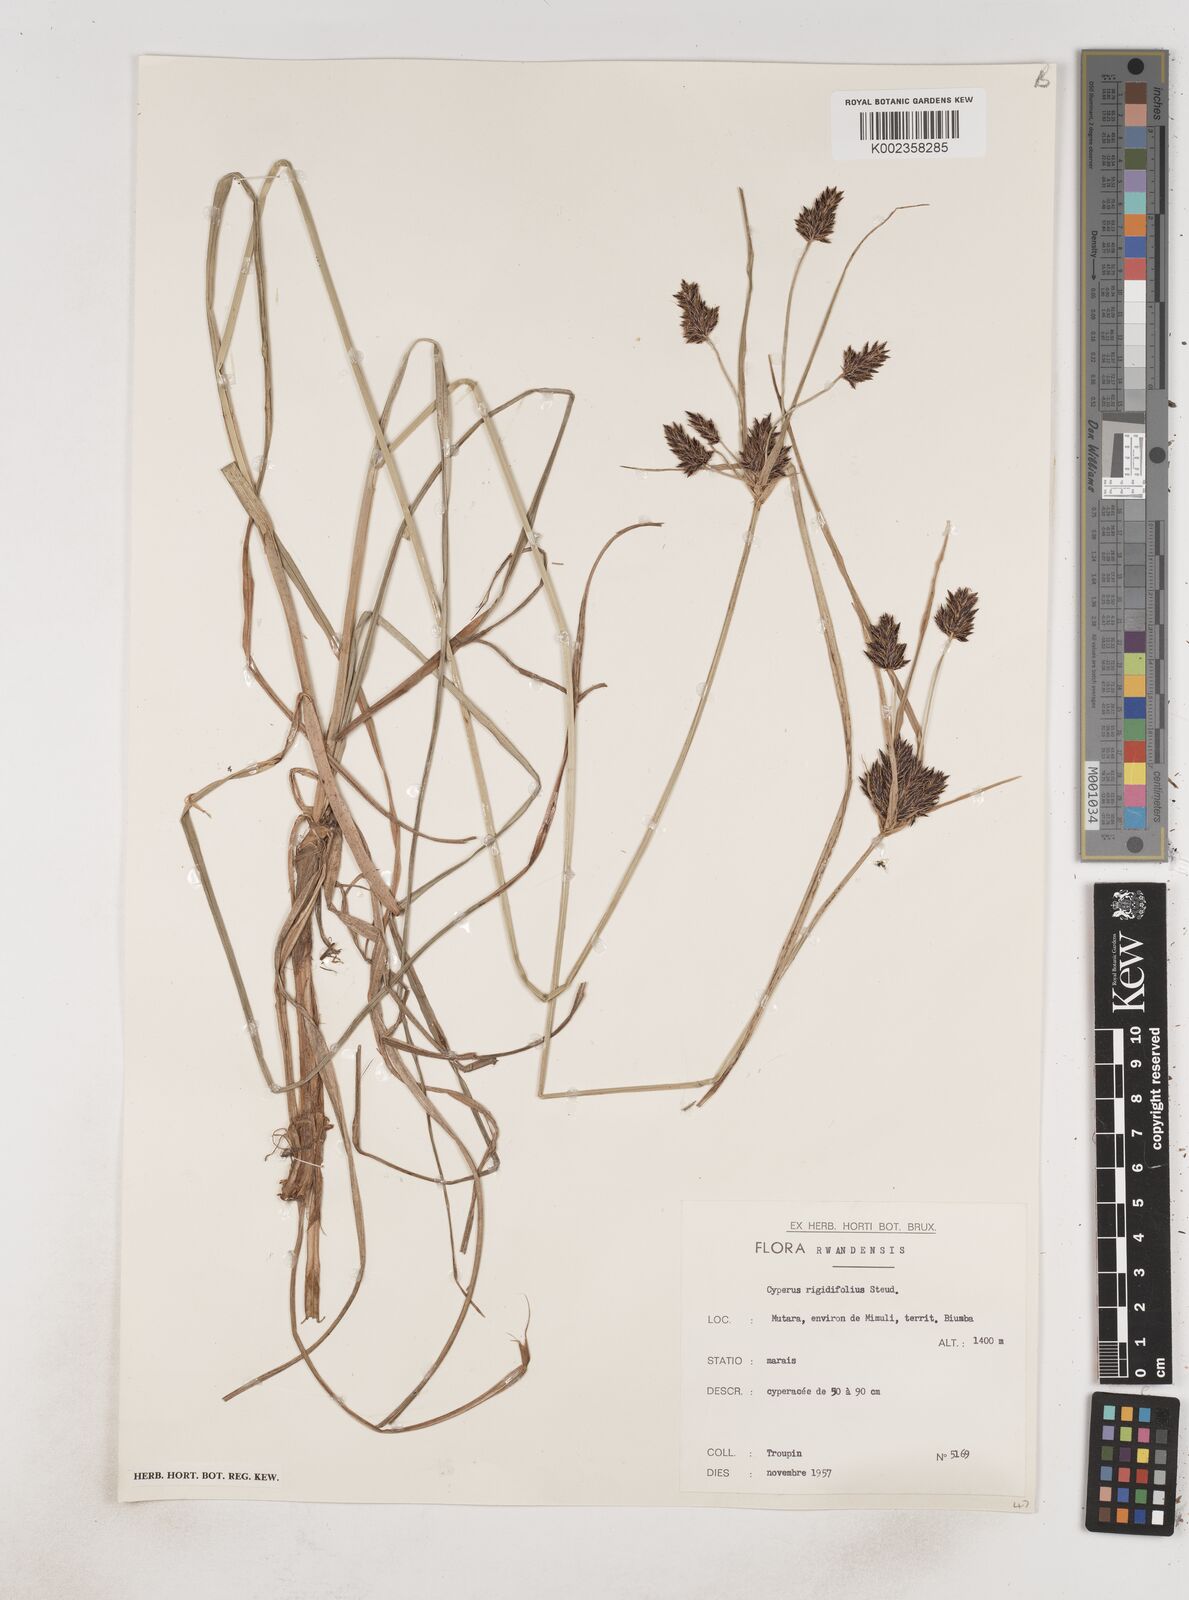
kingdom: Plantae
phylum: Tracheophyta
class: Liliopsida
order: Poales
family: Cyperaceae
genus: Cyperus
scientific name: Cyperus rigidifolius
